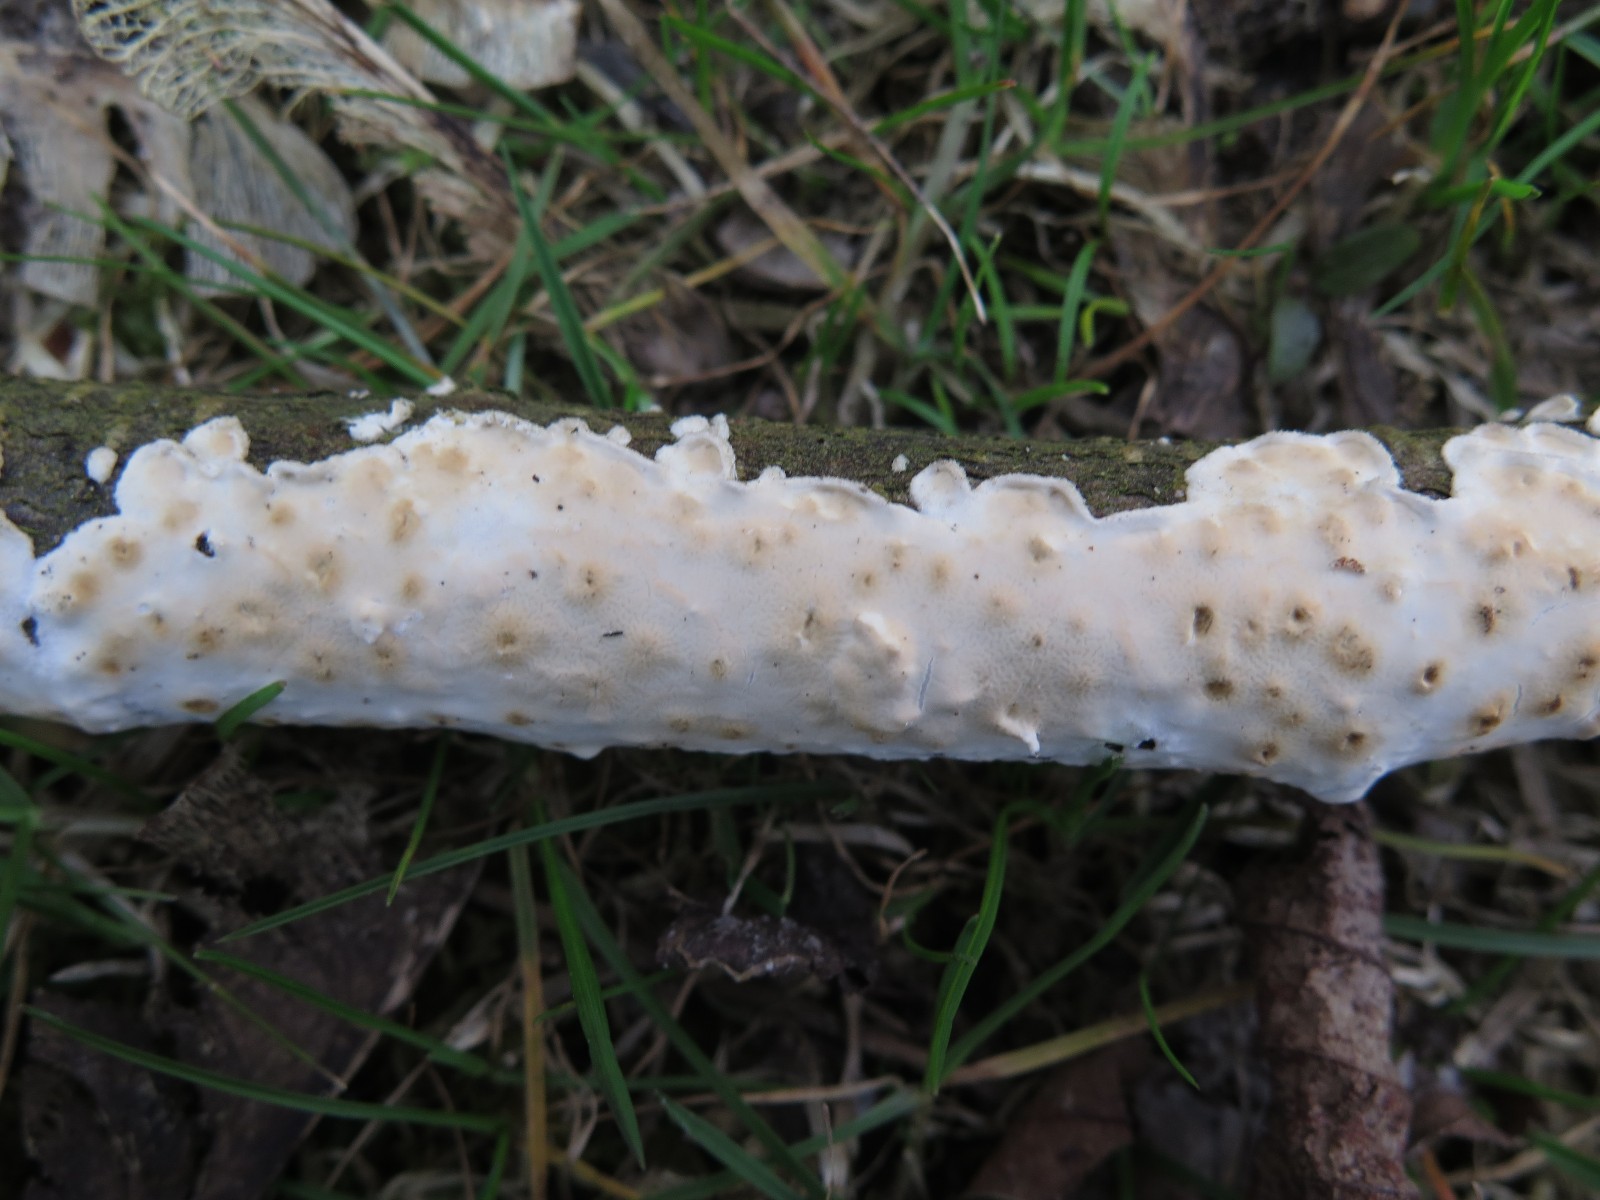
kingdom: Fungi
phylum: Basidiomycota
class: Agaricomycetes
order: Polyporales
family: Irpicaceae
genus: Byssomerulius
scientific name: Byssomerulius corium
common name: læder-åresvamp
